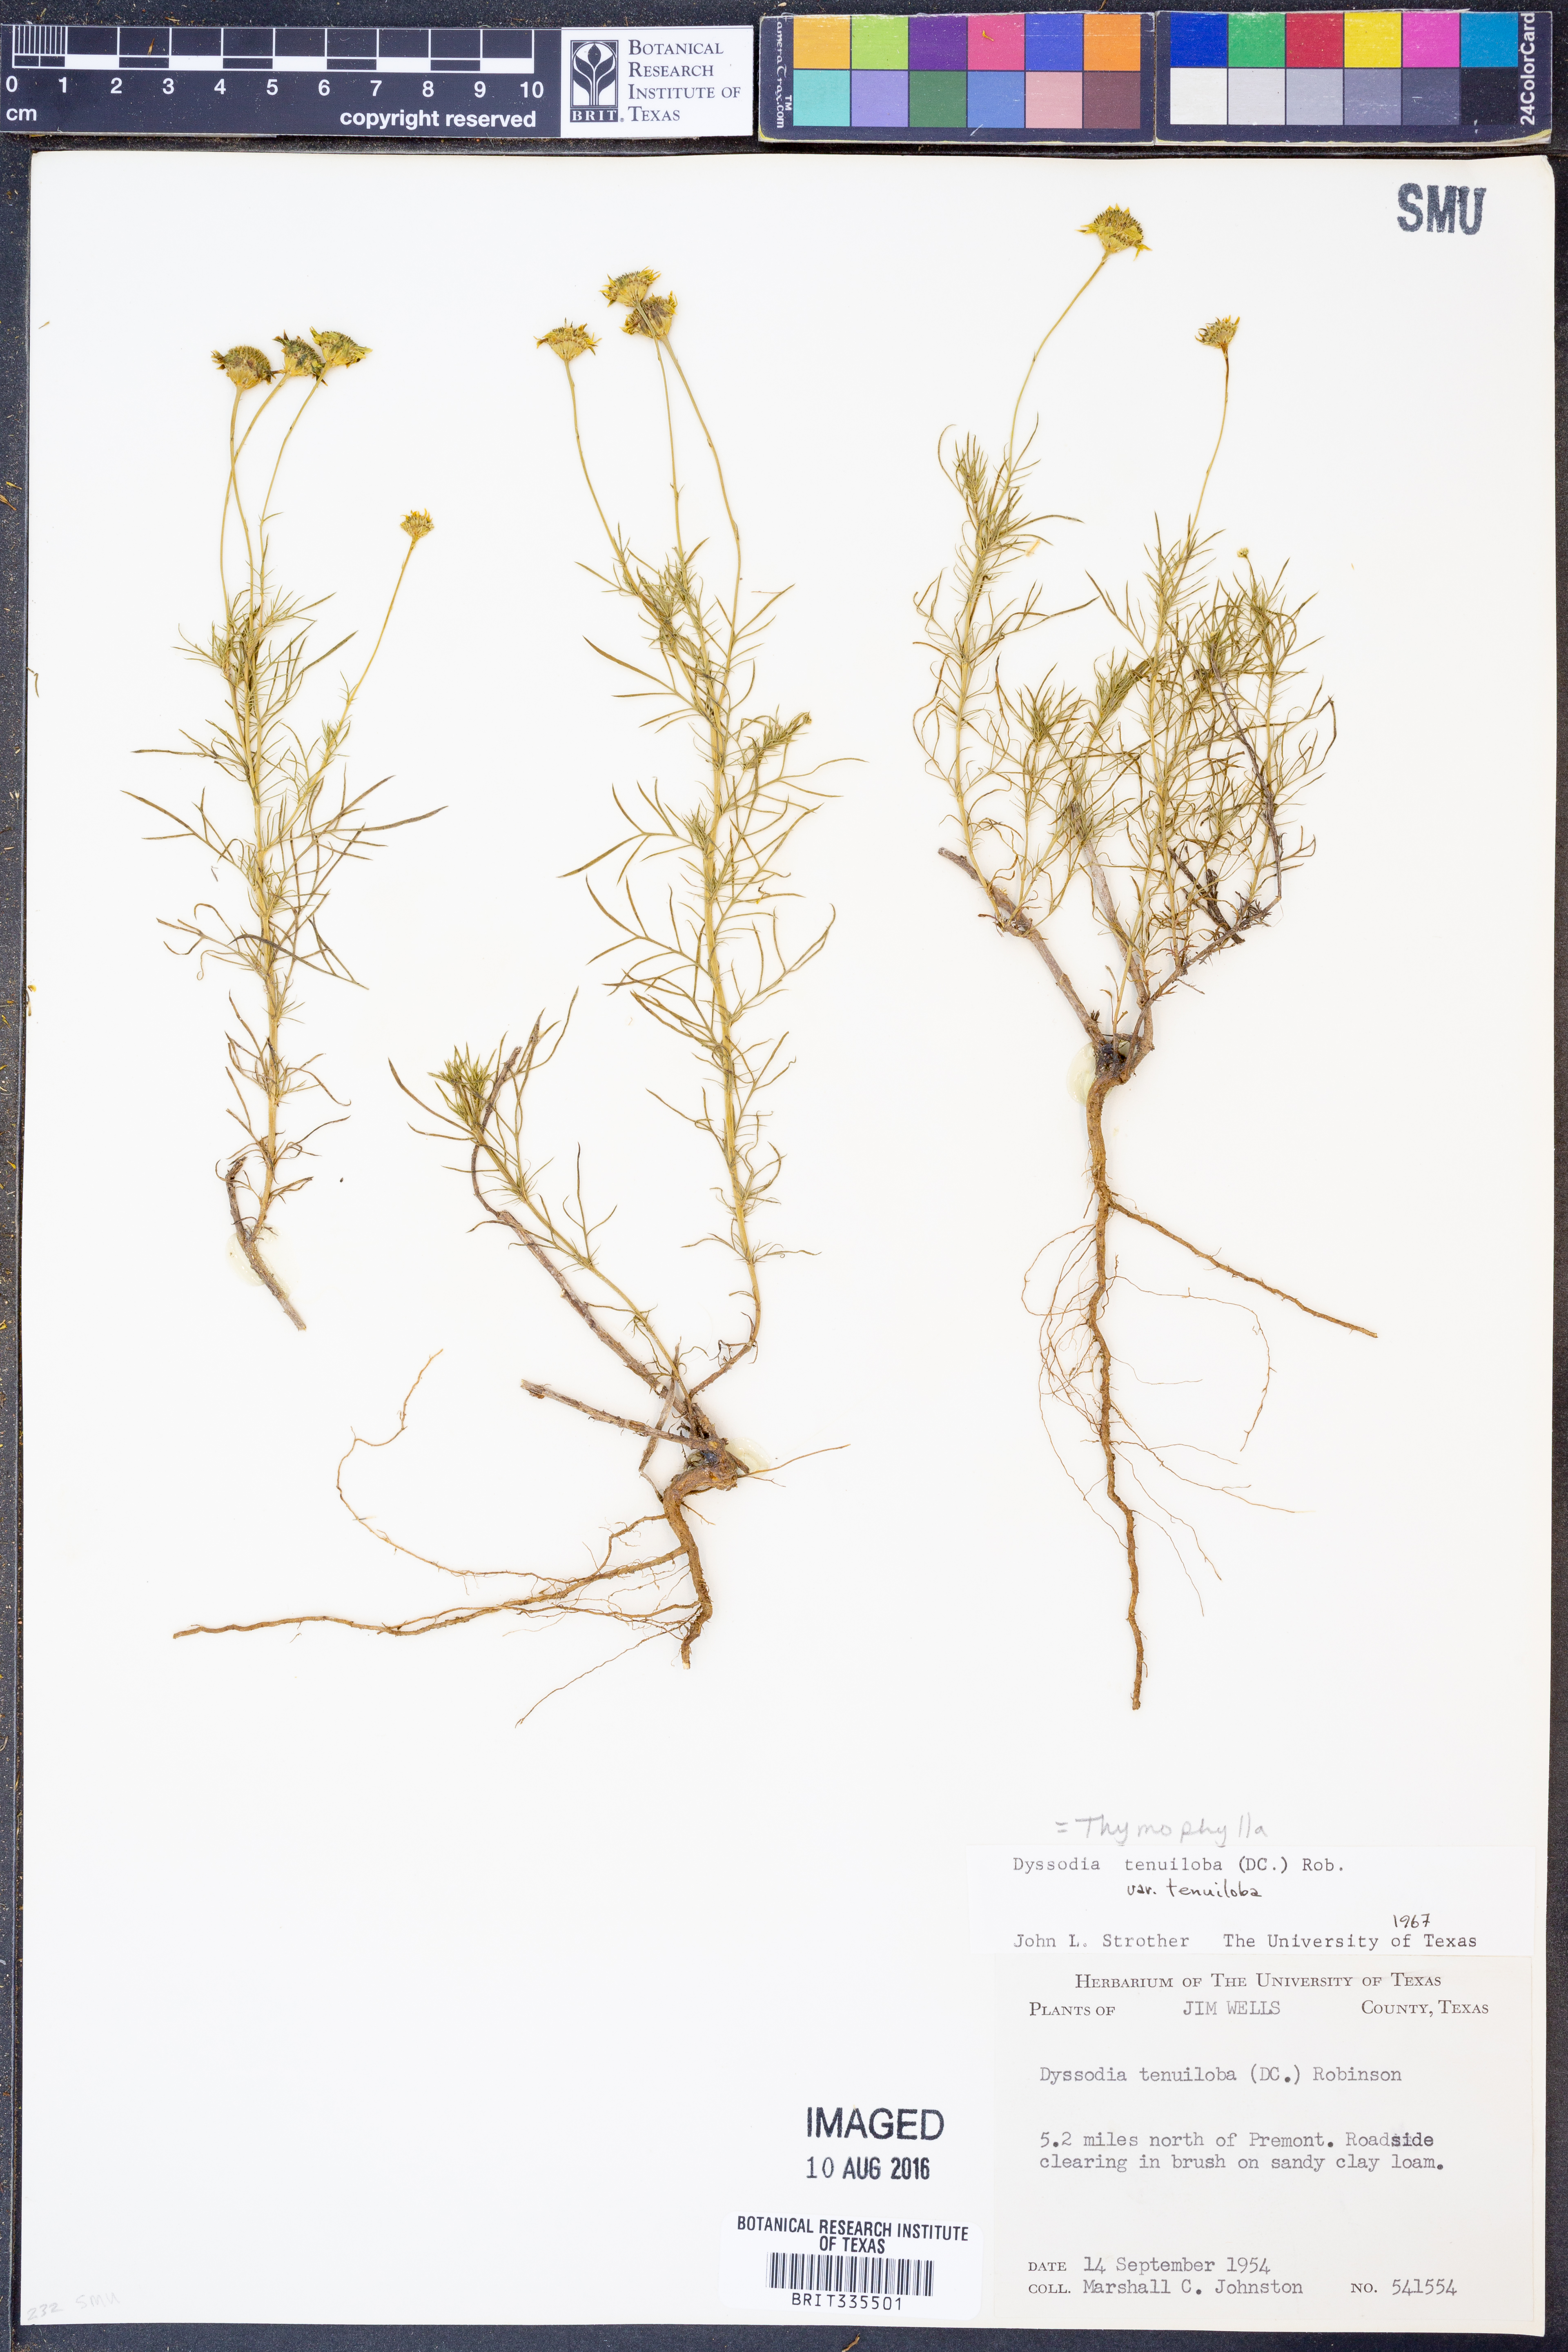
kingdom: Plantae
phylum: Tracheophyta
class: Magnoliopsida
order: Asterales
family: Asteraceae
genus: Thymophylla
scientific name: Thymophylla tenuiloba
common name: Dahlberg's daisy
